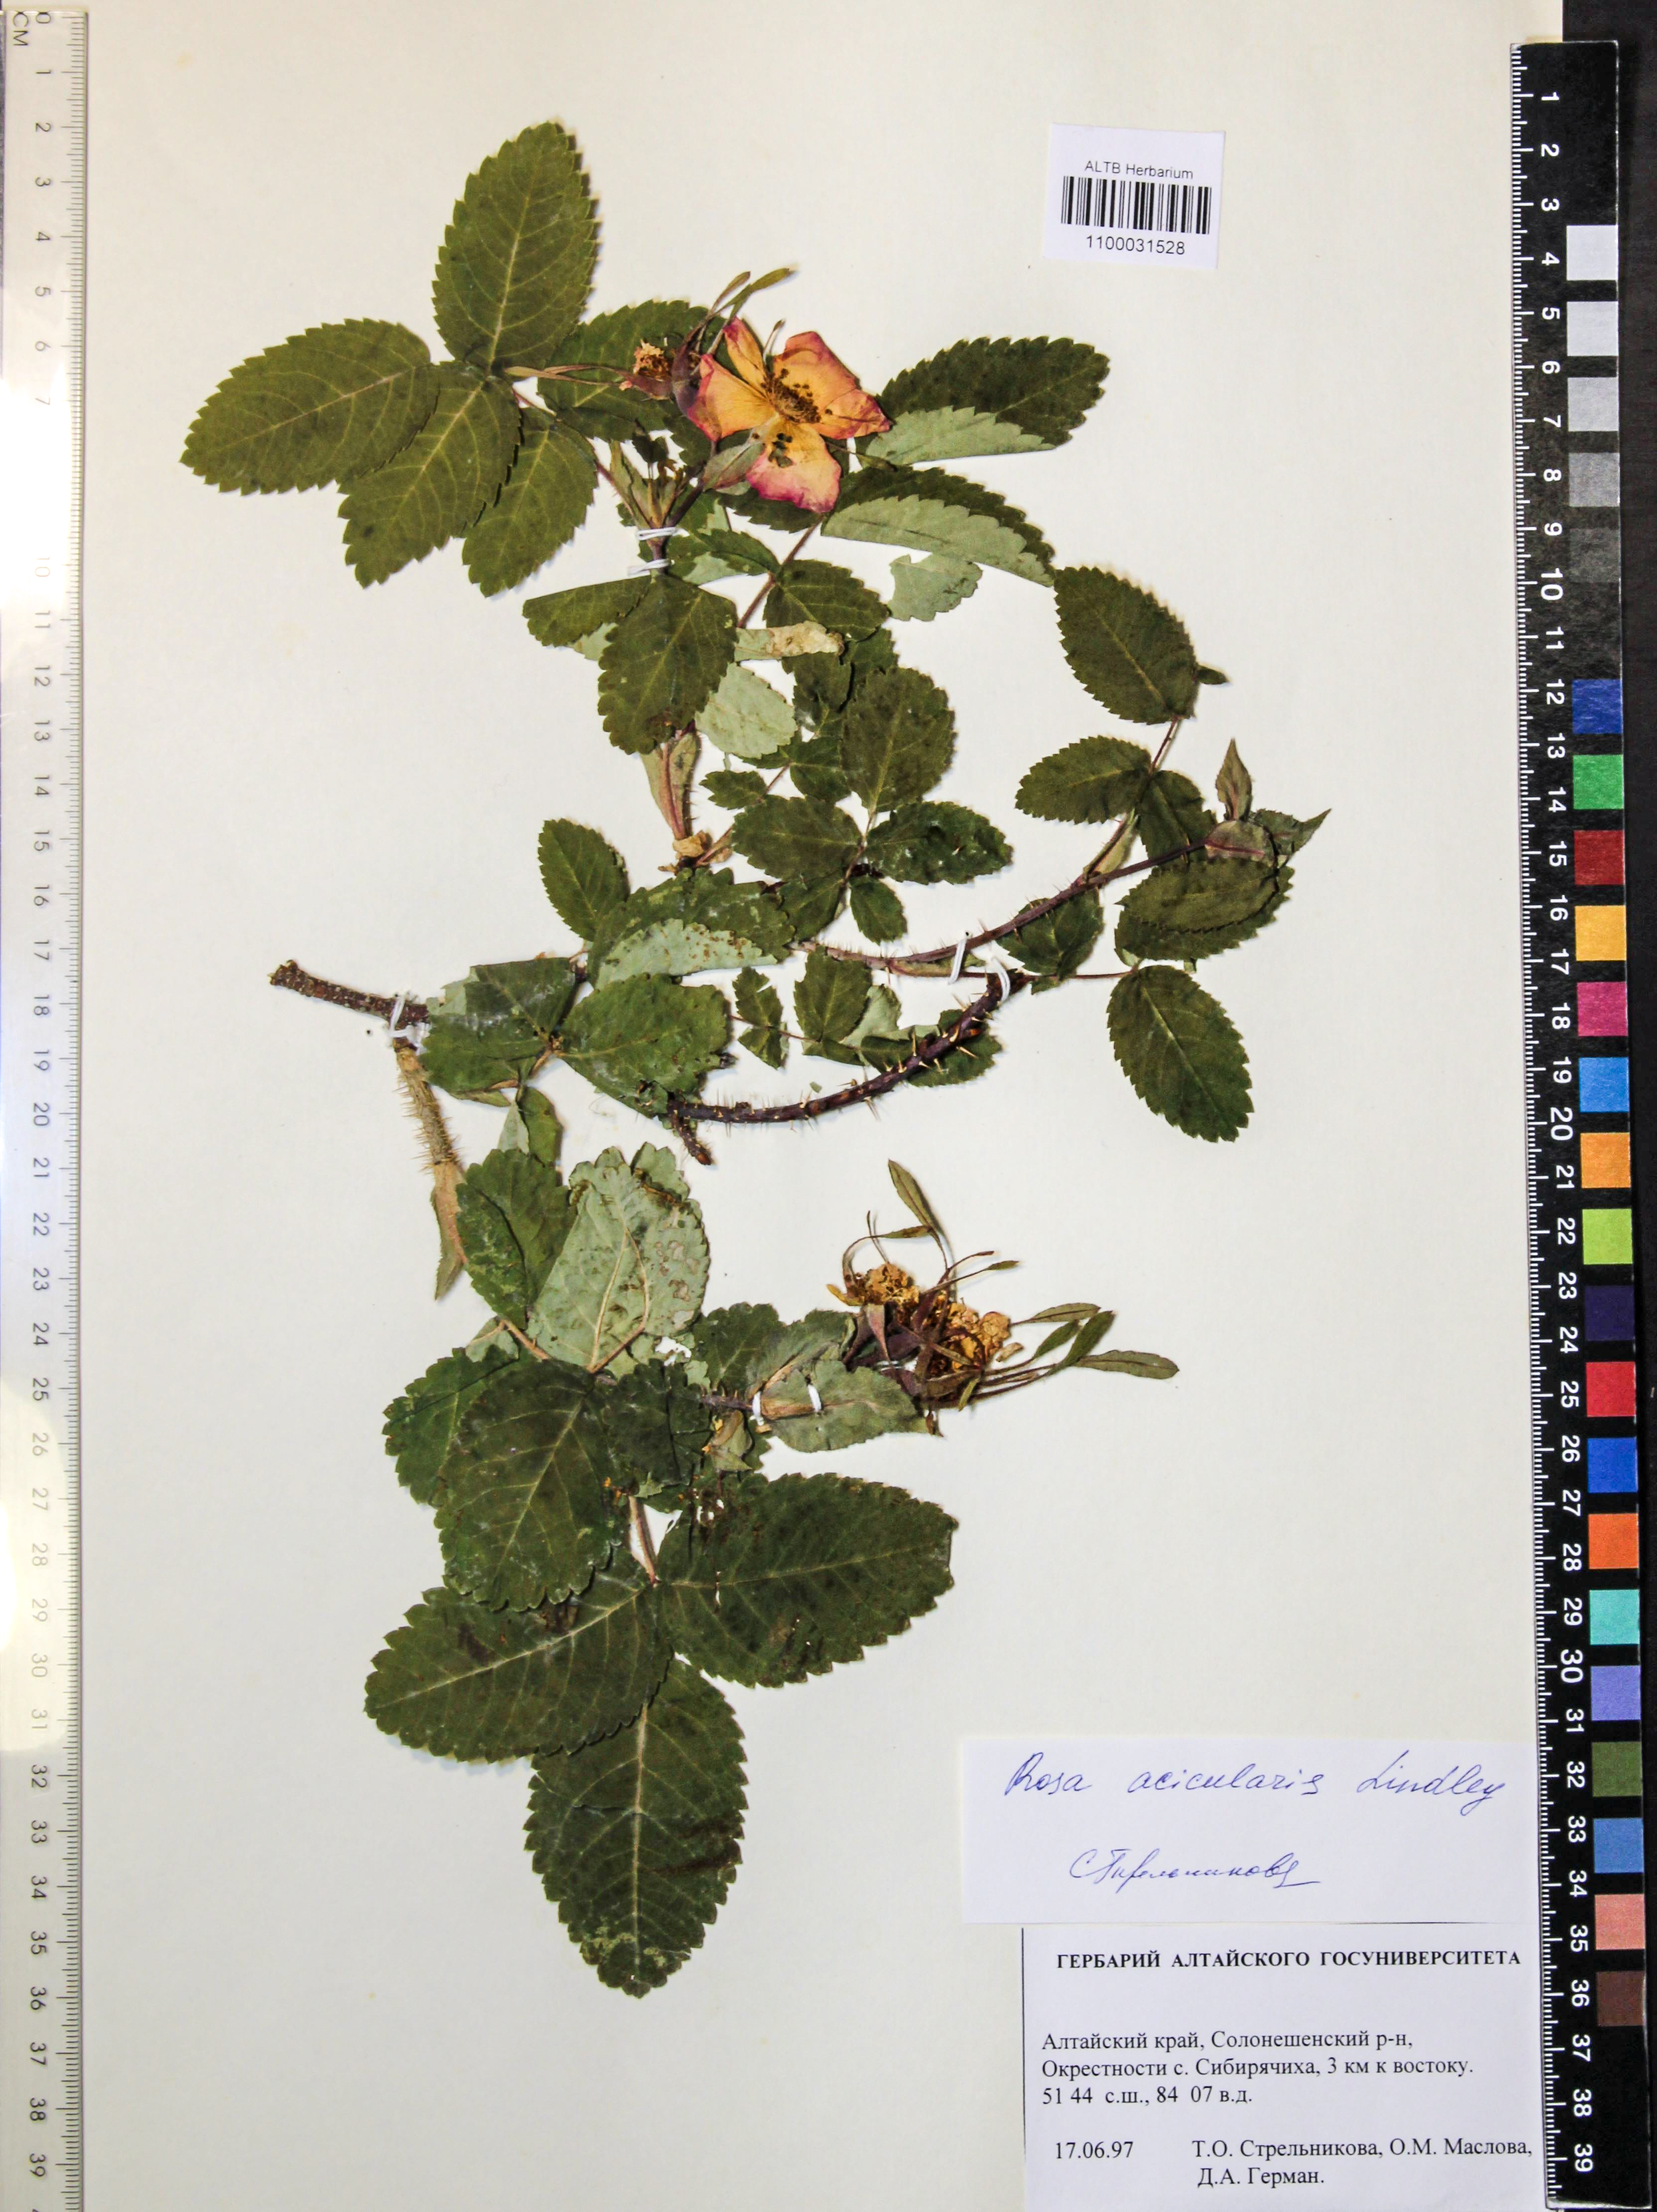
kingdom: Plantae
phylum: Tracheophyta
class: Magnoliopsida
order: Rosales
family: Rosaceae
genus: Rosa
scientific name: Rosa acicularis
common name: Prickly rose
